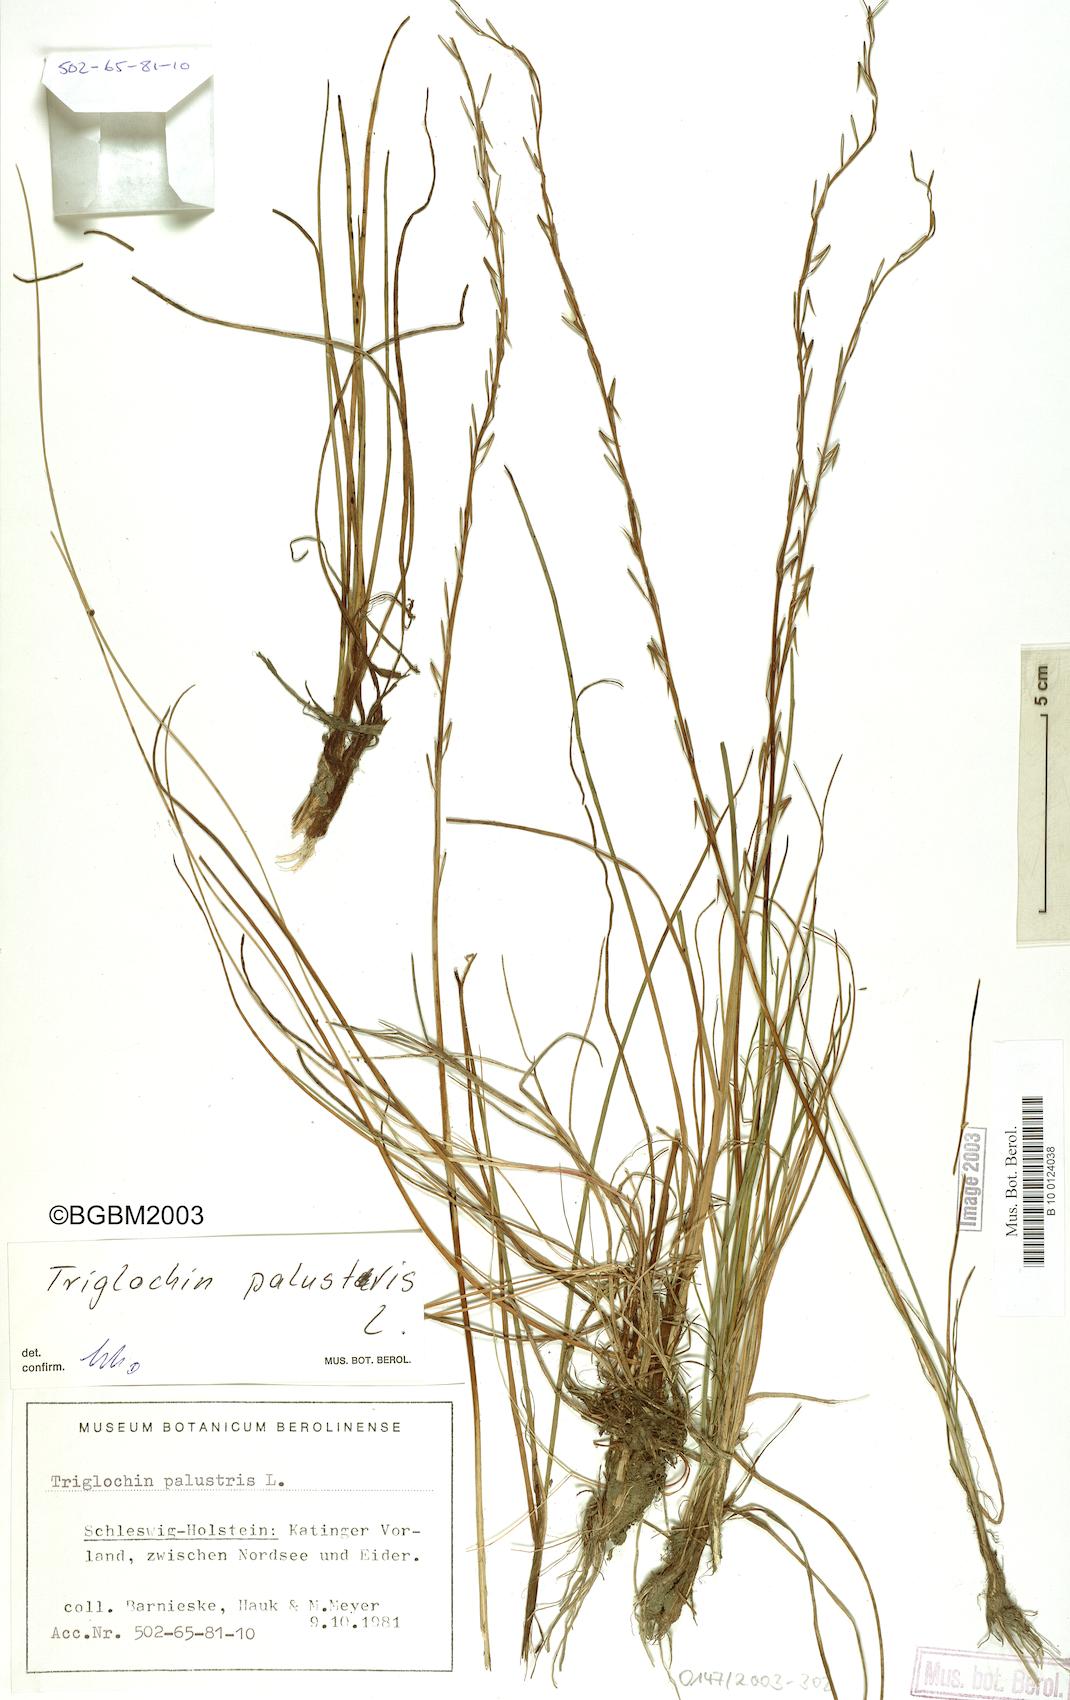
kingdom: Plantae
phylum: Tracheophyta
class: Liliopsida
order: Alismatales
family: Juncaginaceae
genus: Triglochin
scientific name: Triglochin palustris
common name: Marsh arrowgrass
